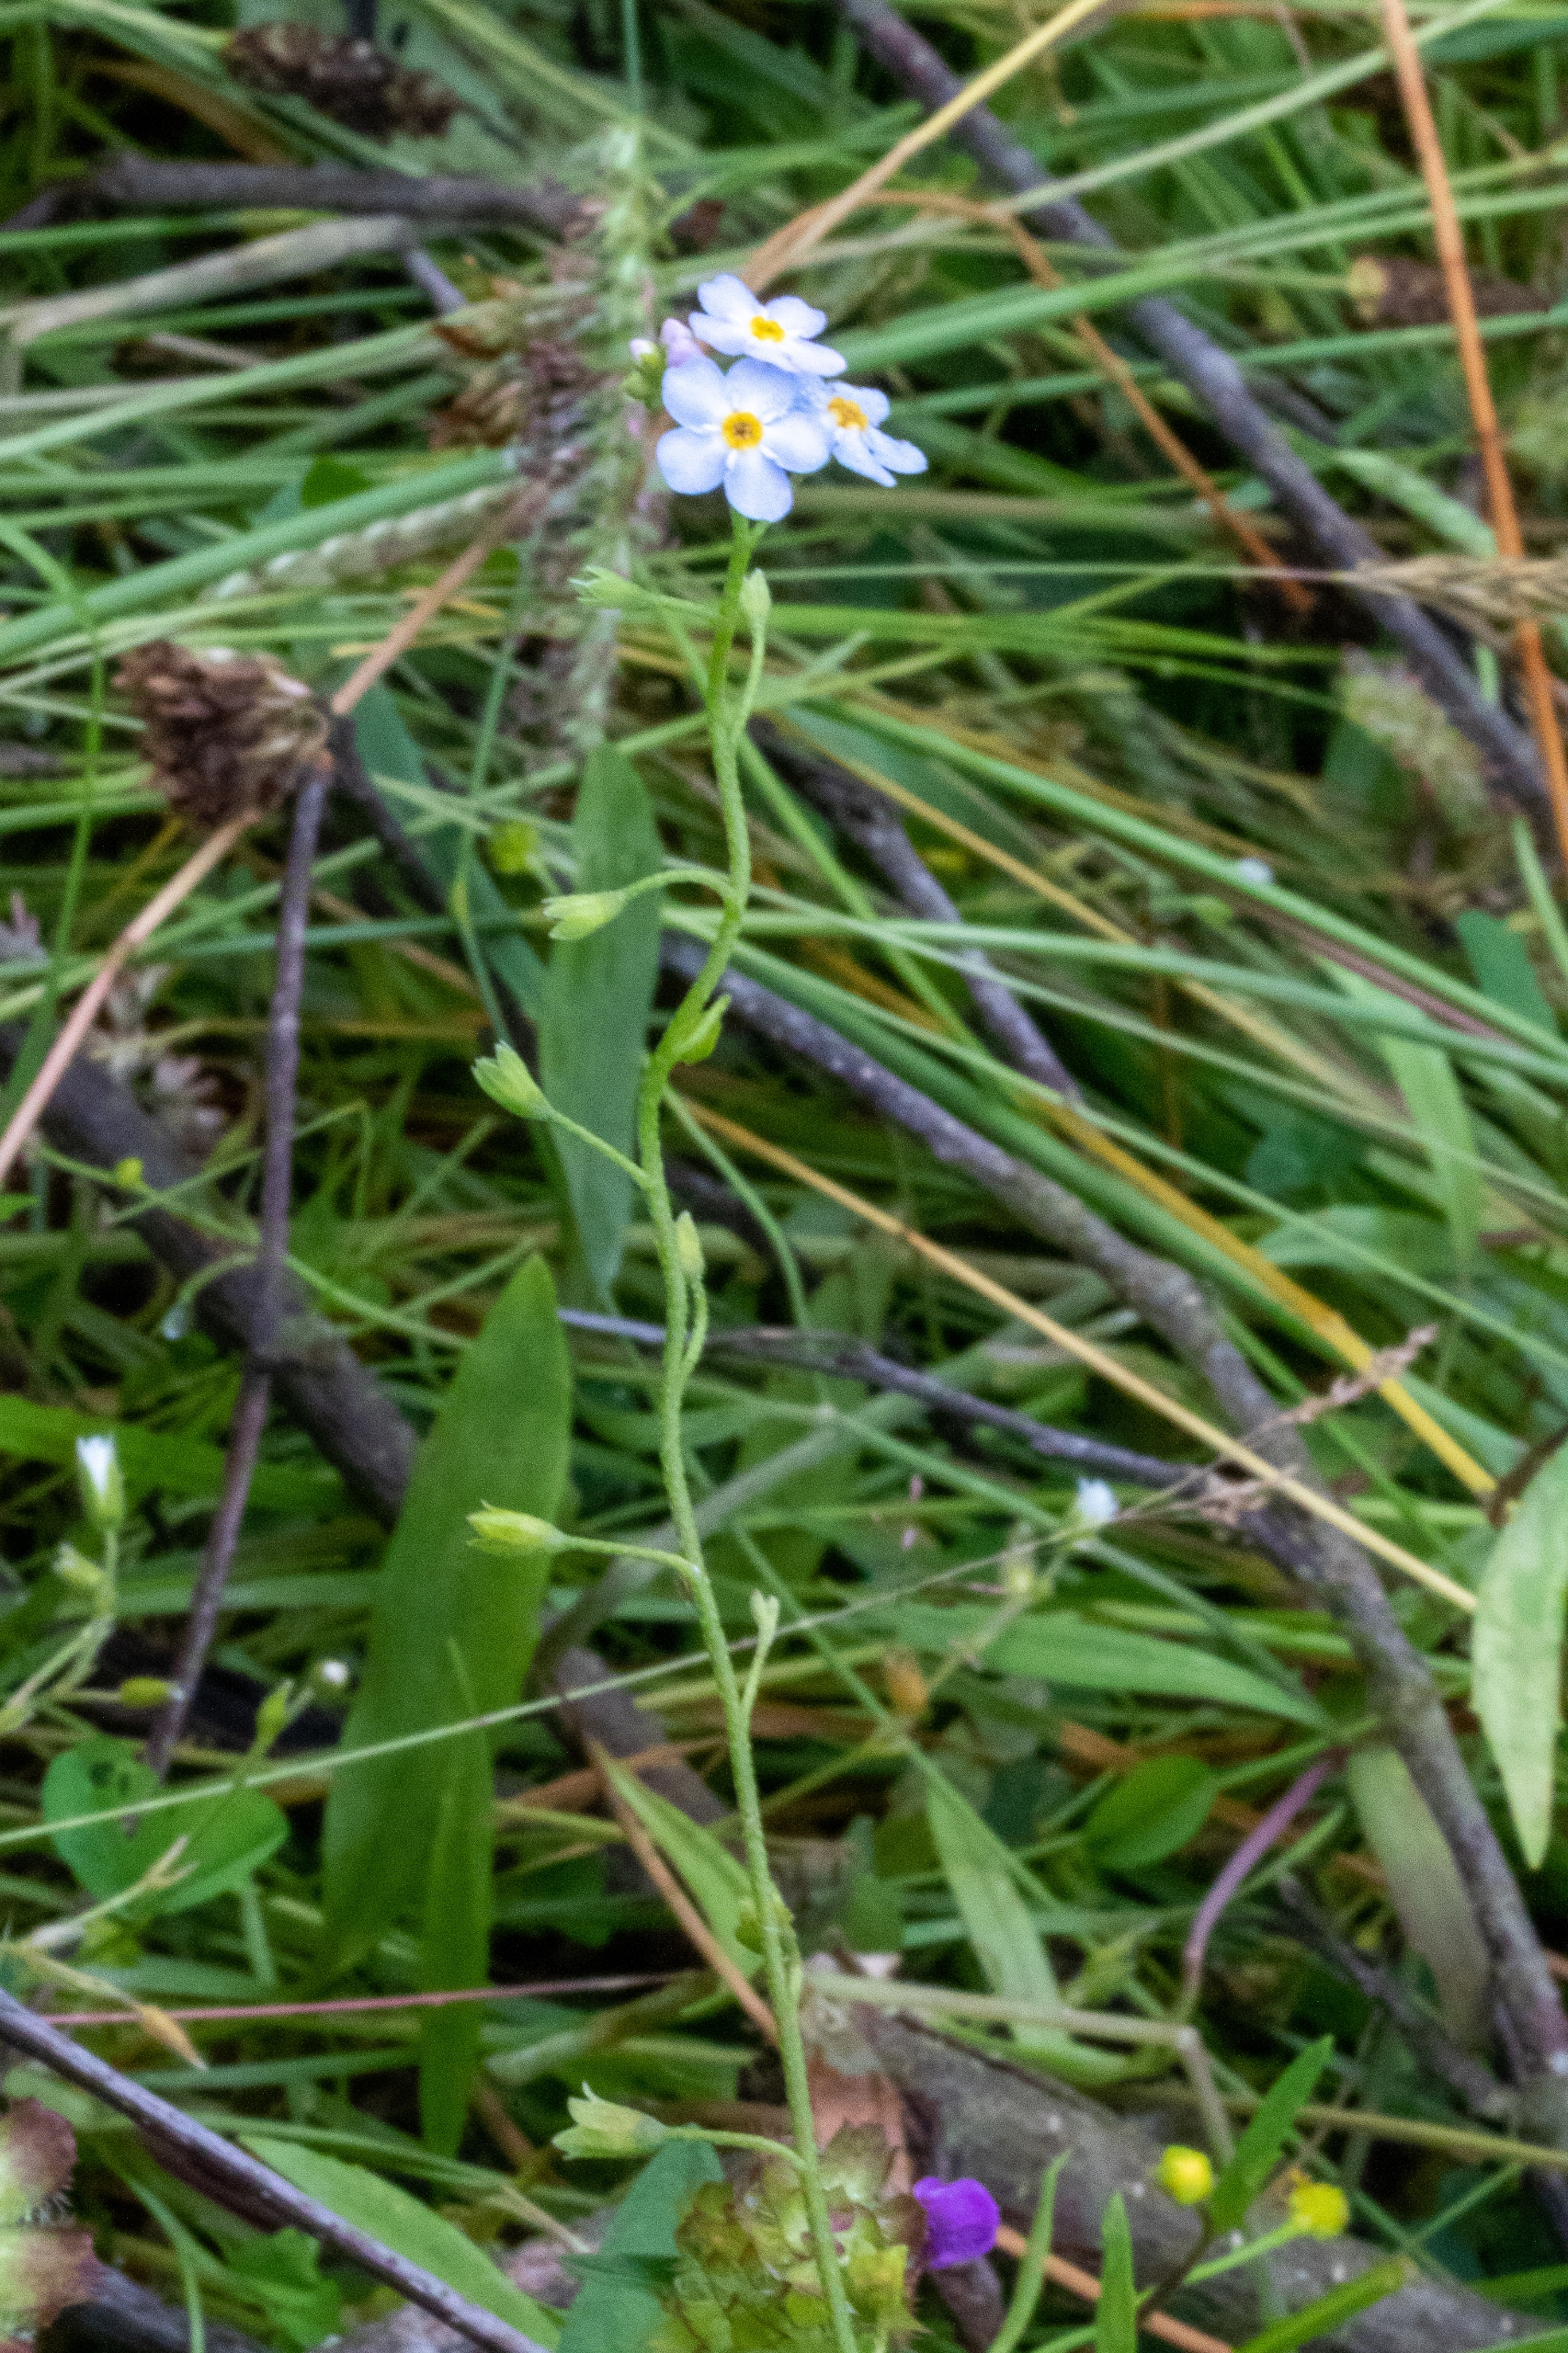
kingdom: Plantae
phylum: Tracheophyta
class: Magnoliopsida
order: Boraginales
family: Boraginaceae
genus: Myosotis
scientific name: Myosotis scorpioides
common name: Eng-forglemmigej
